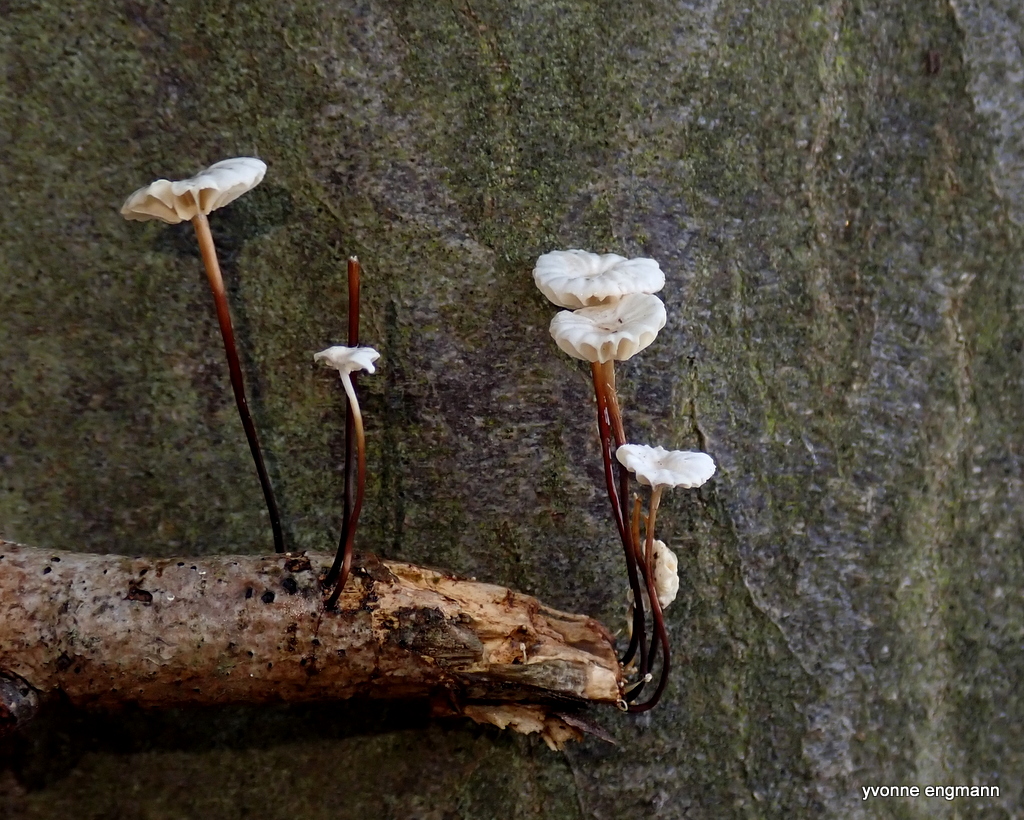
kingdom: Fungi
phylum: Basidiomycota
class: Agaricomycetes
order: Agaricales
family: Marasmiaceae
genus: Marasmius
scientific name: Marasmius rotula
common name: hjul-bruskhat
